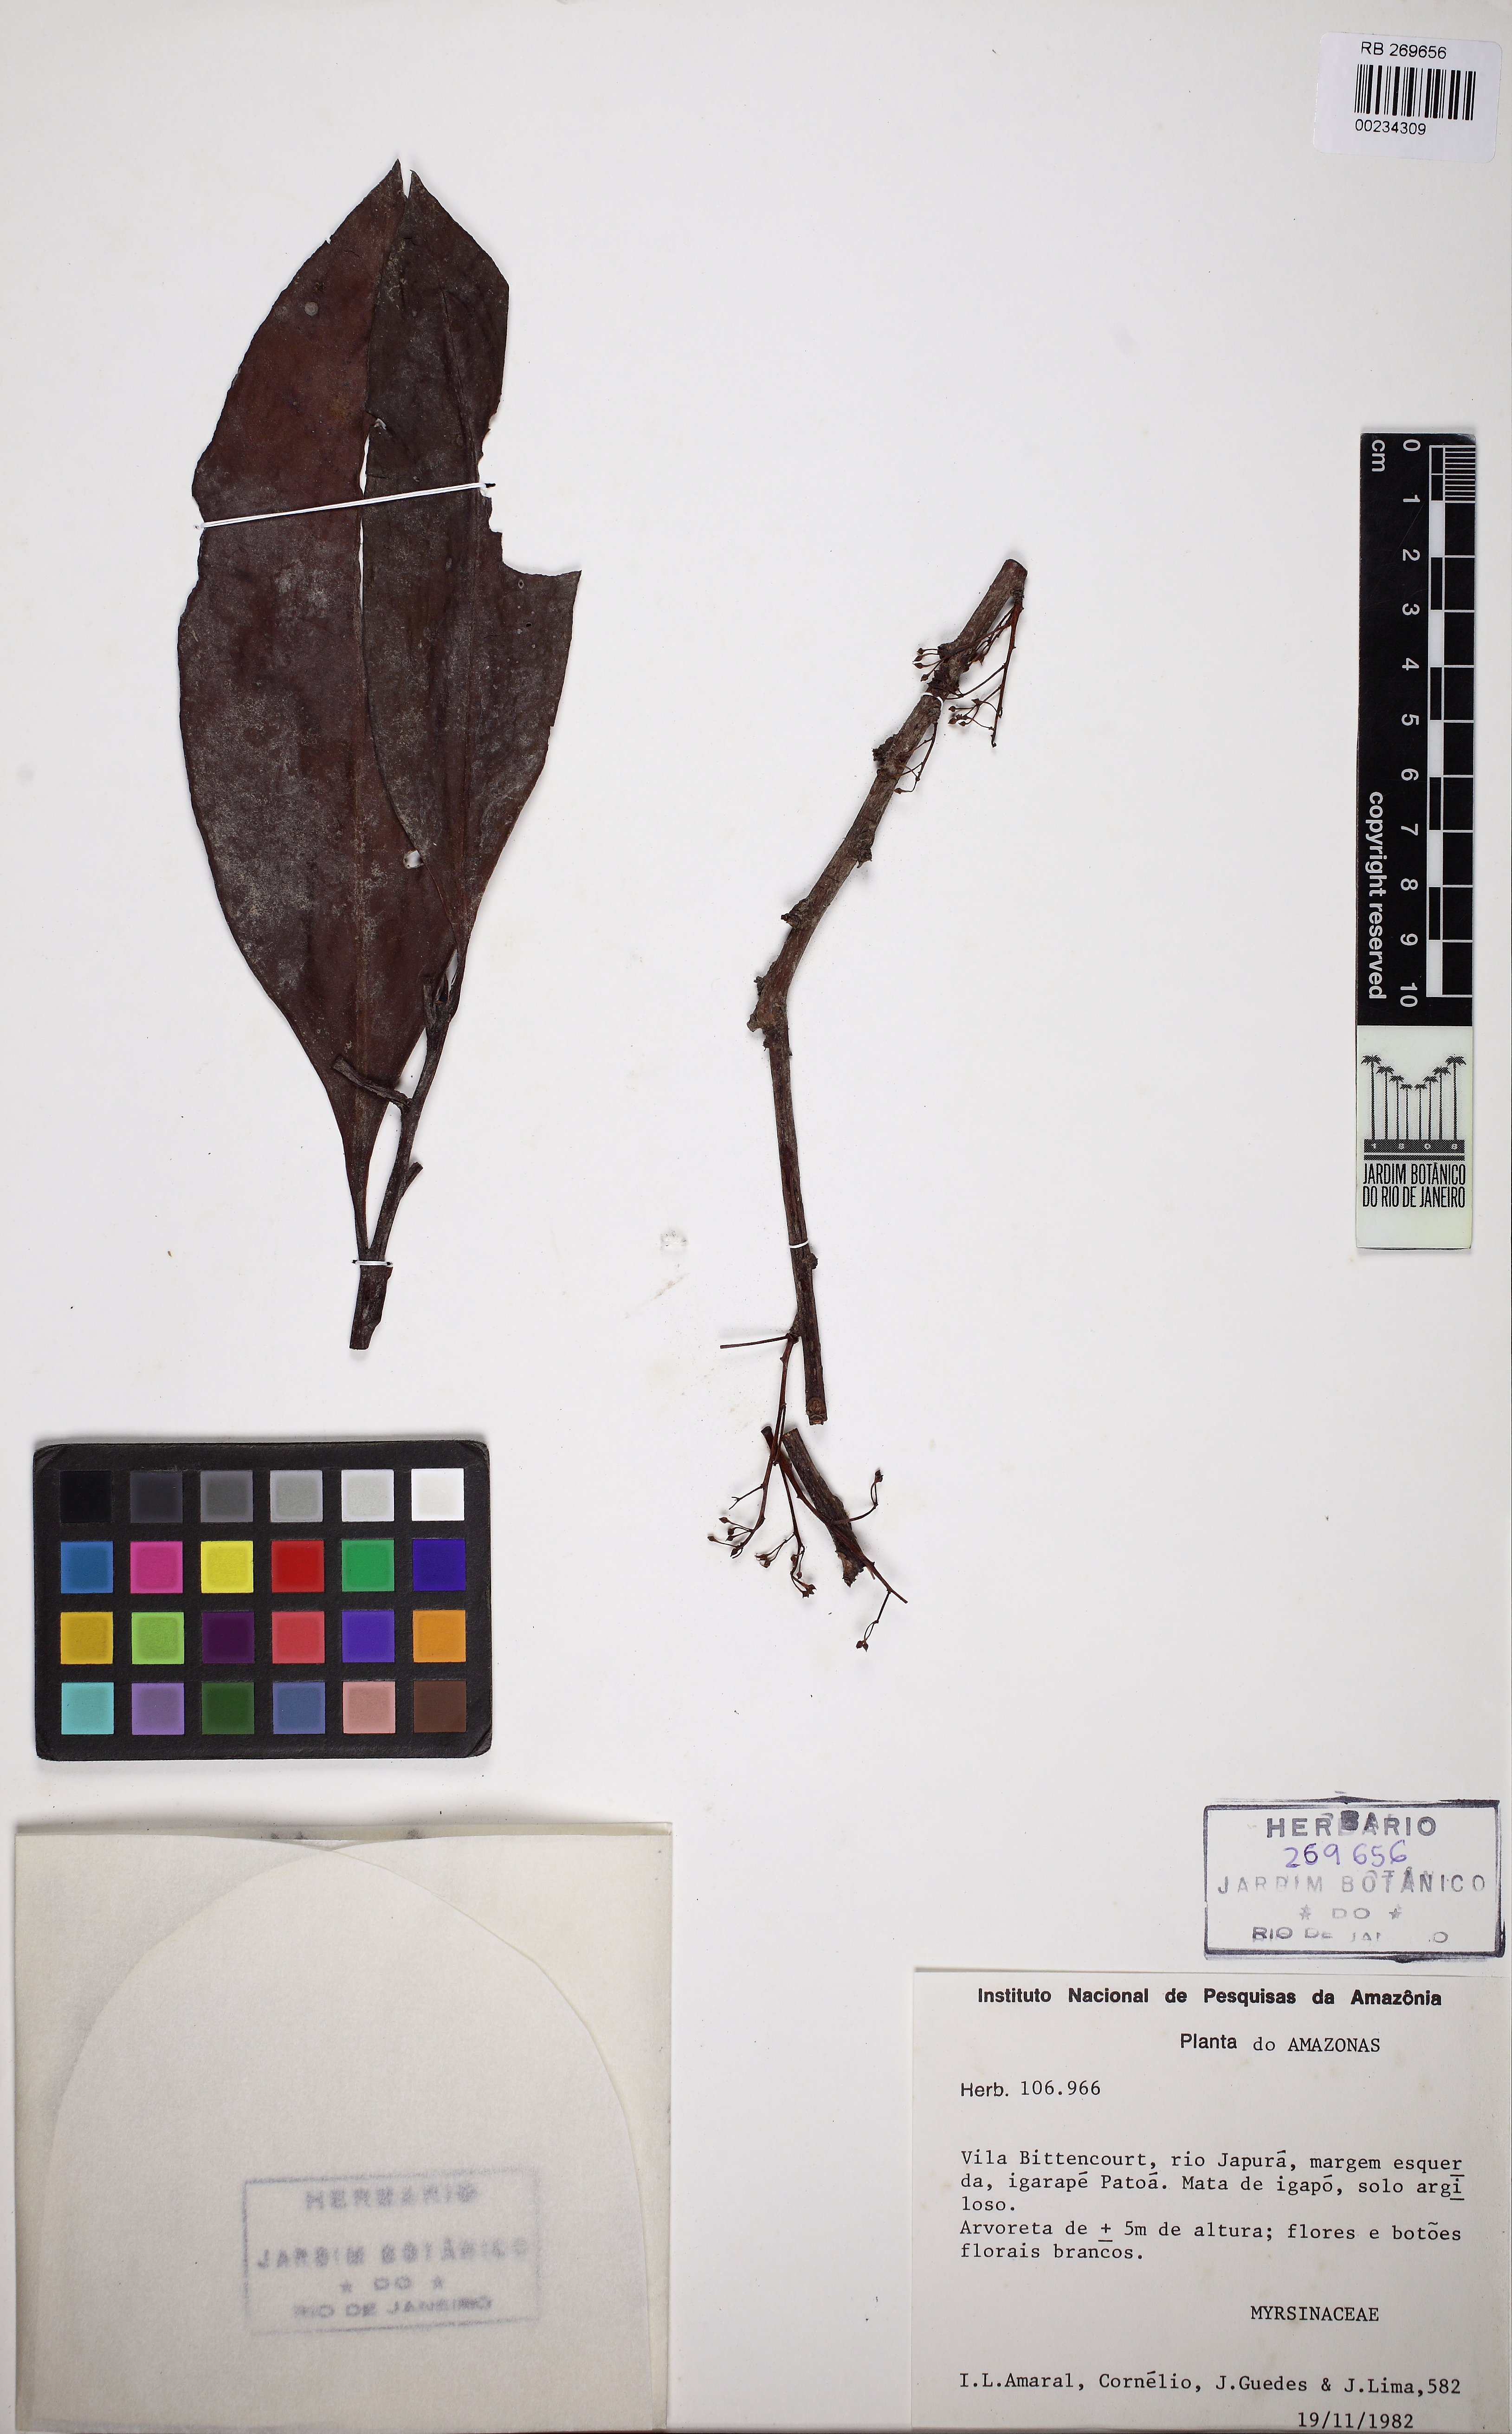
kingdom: Plantae
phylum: Tracheophyta
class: Magnoliopsida
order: Ericales
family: Primulaceae
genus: Stylogyne
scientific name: Stylogyne orinocensis
